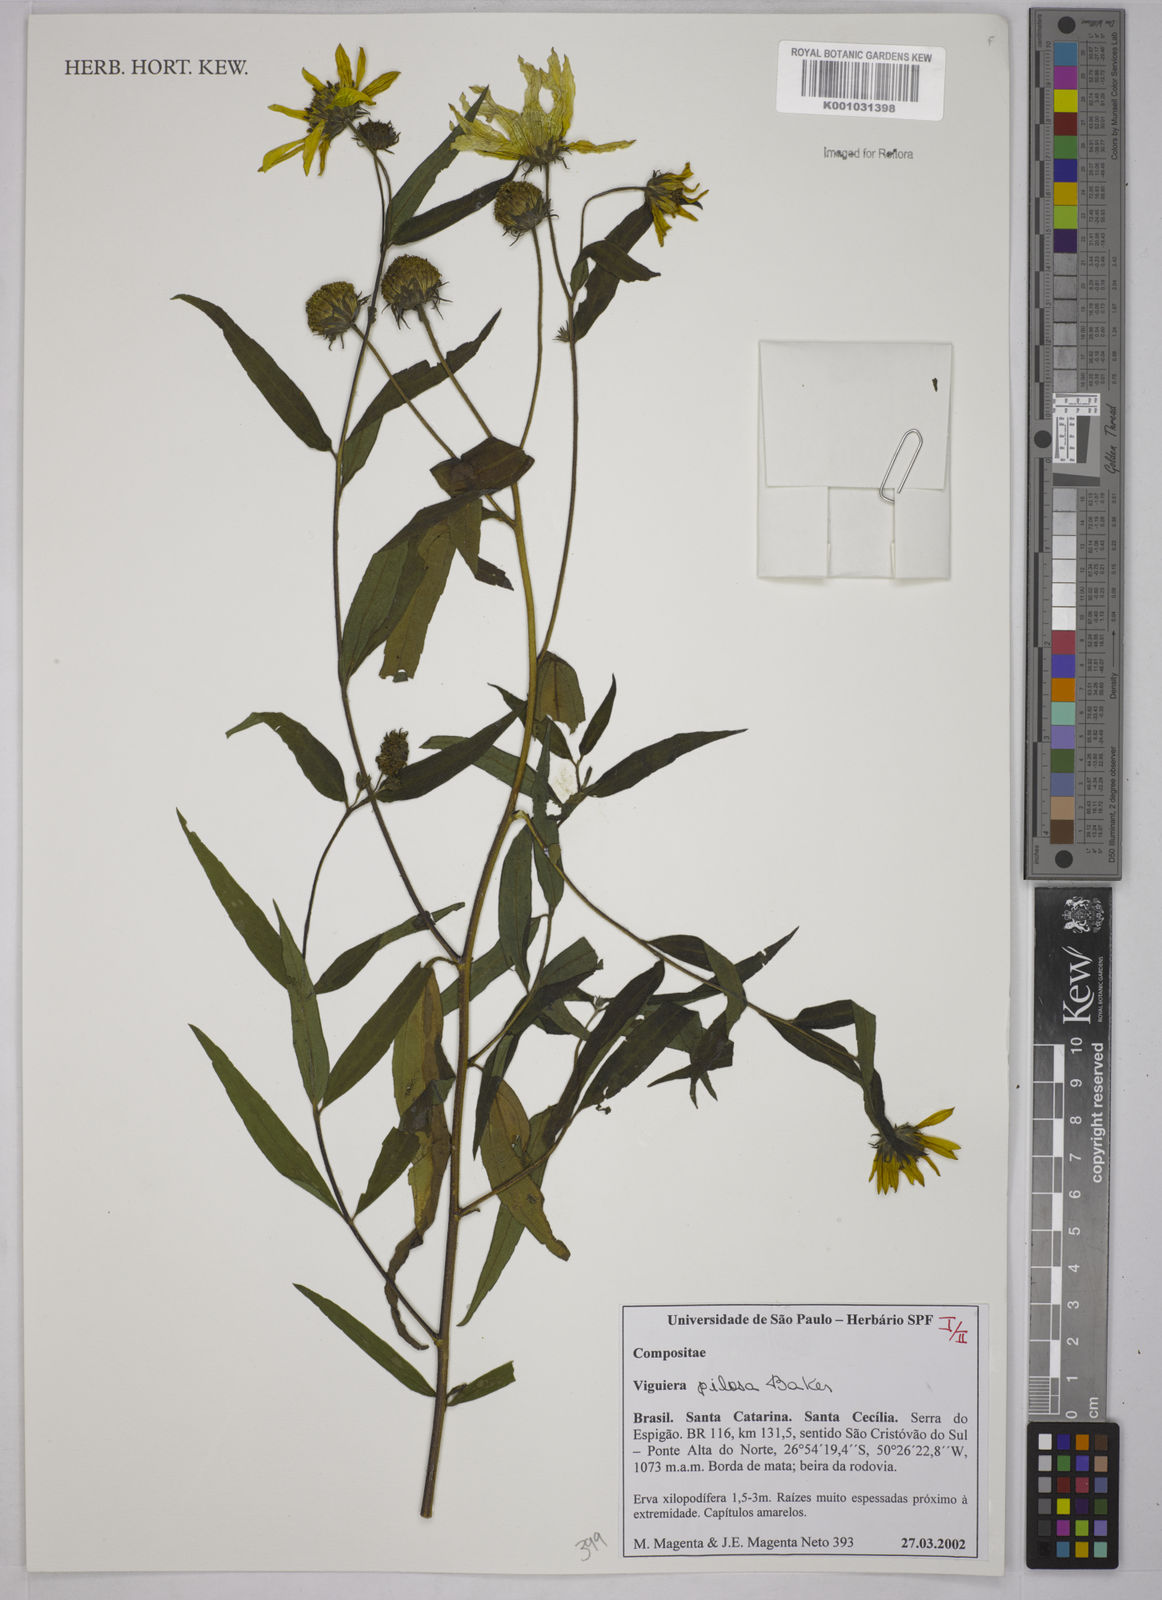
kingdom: Plantae
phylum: Tracheophyta
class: Magnoliopsida
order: Asterales
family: Asteraceae
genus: Aldama
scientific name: Aldama pilosa
